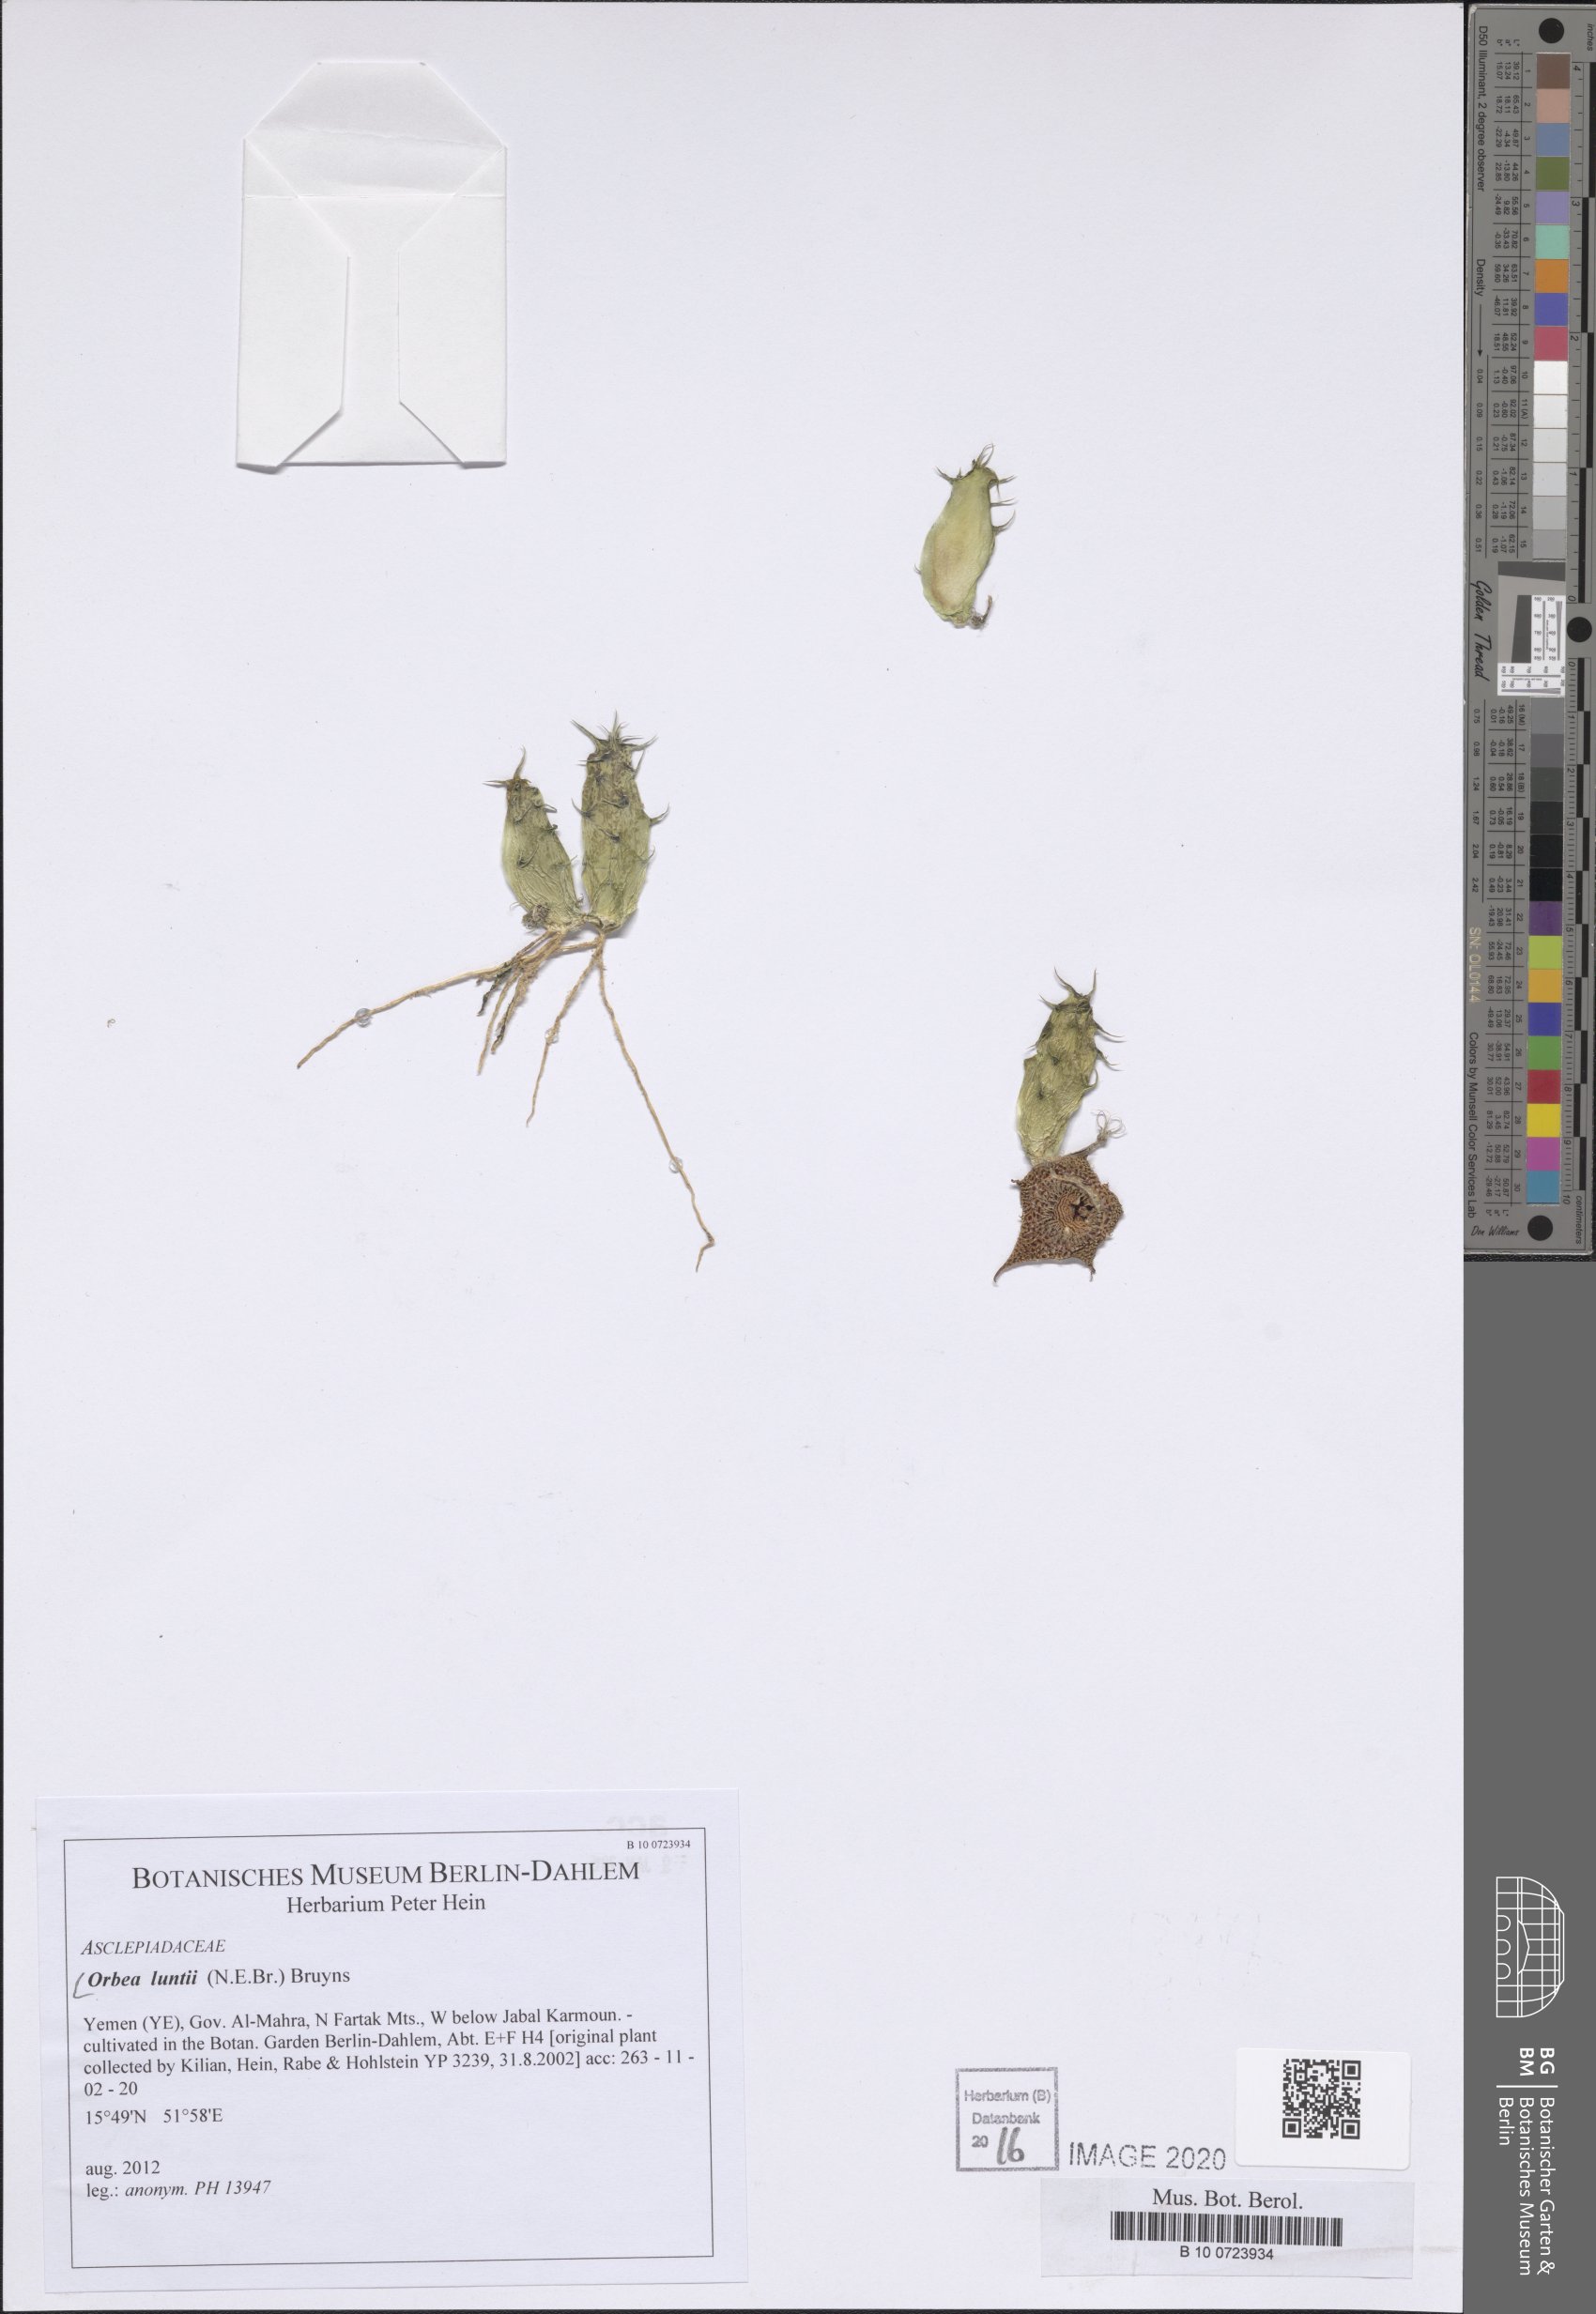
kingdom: Plantae
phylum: Tracheophyta
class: Magnoliopsida
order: Gentianales
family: Apocynaceae
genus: Ceropegia
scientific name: Ceropegia lodarensis
